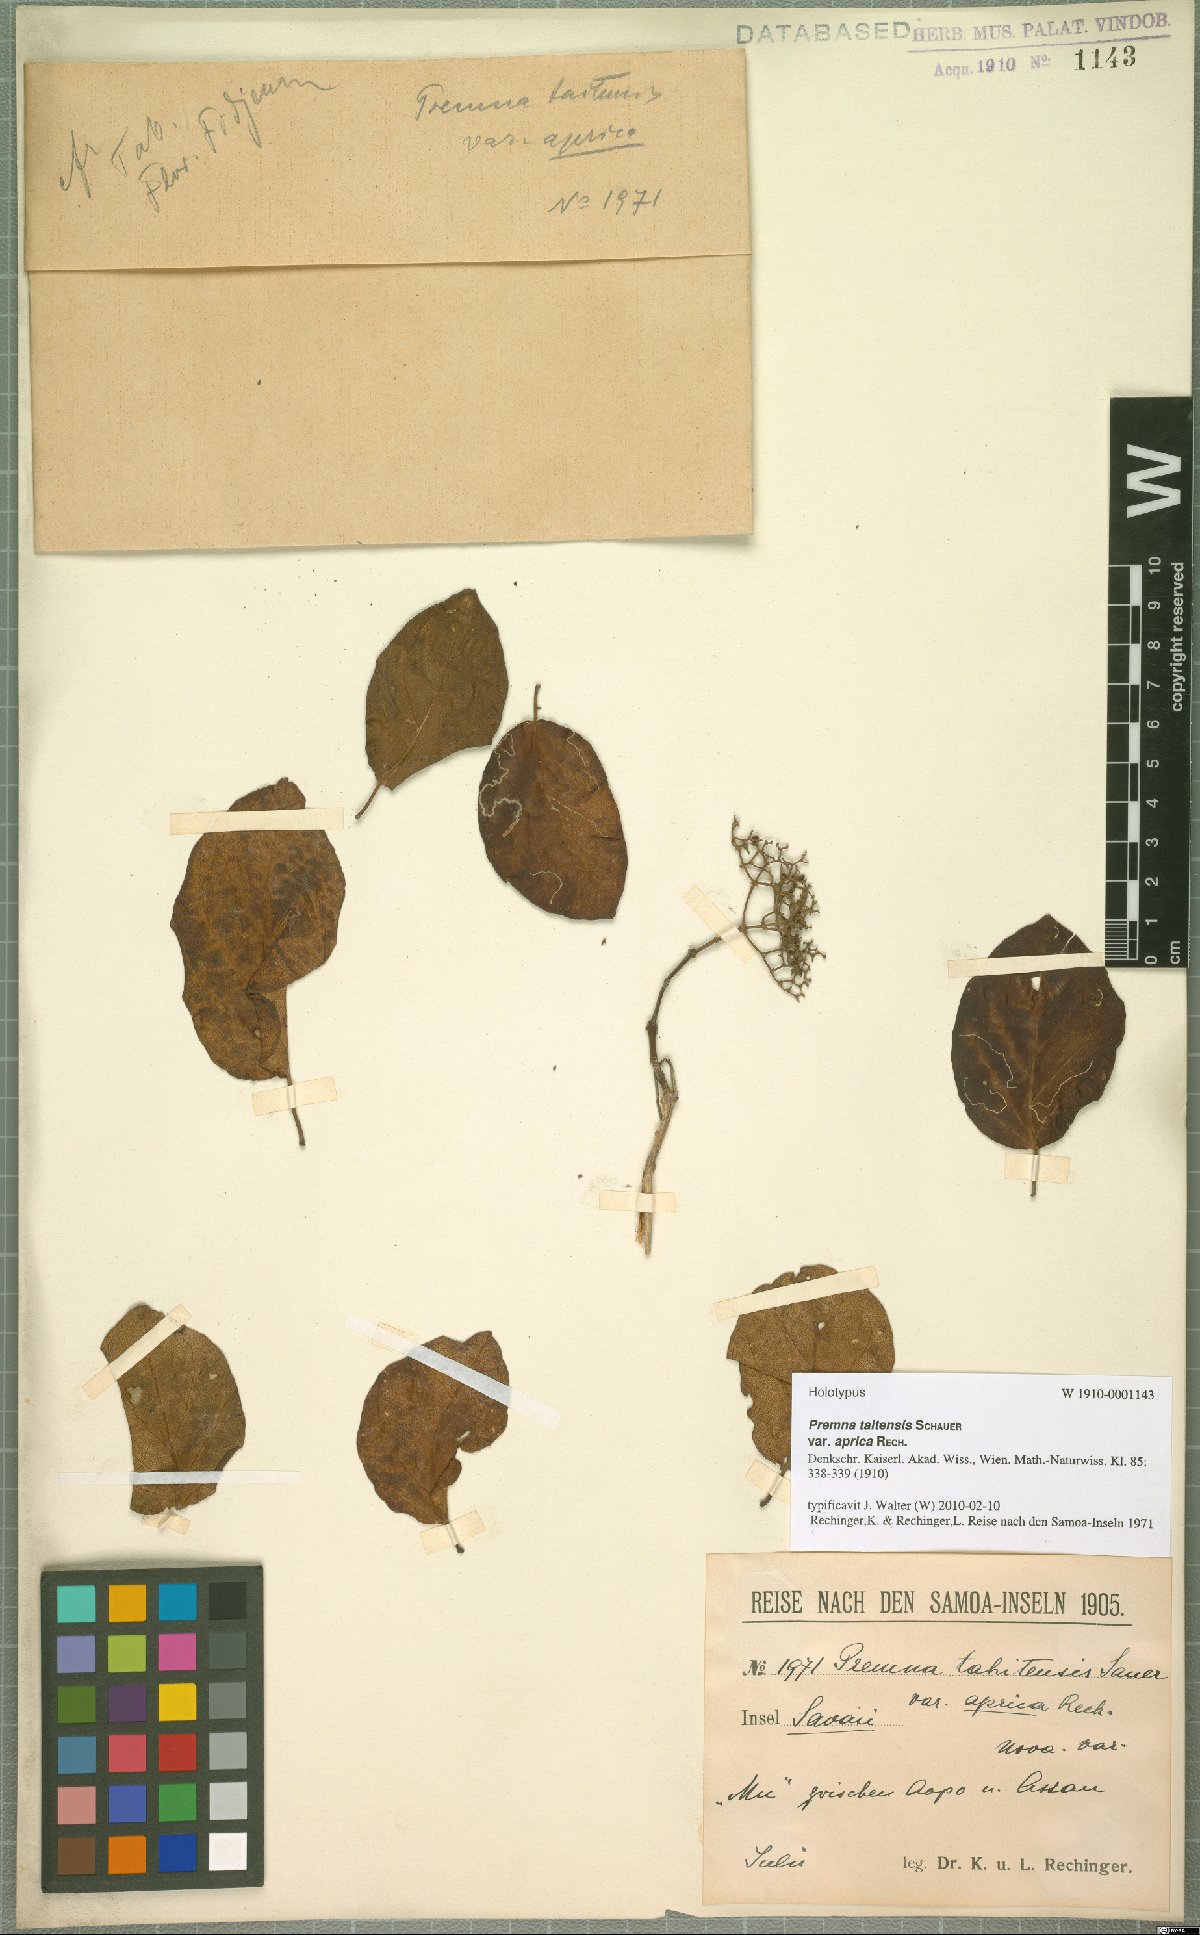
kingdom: Plantae
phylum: Tracheophyta
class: Magnoliopsida
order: Lamiales
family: Lamiaceae
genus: Premna
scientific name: Premna tahitensis
